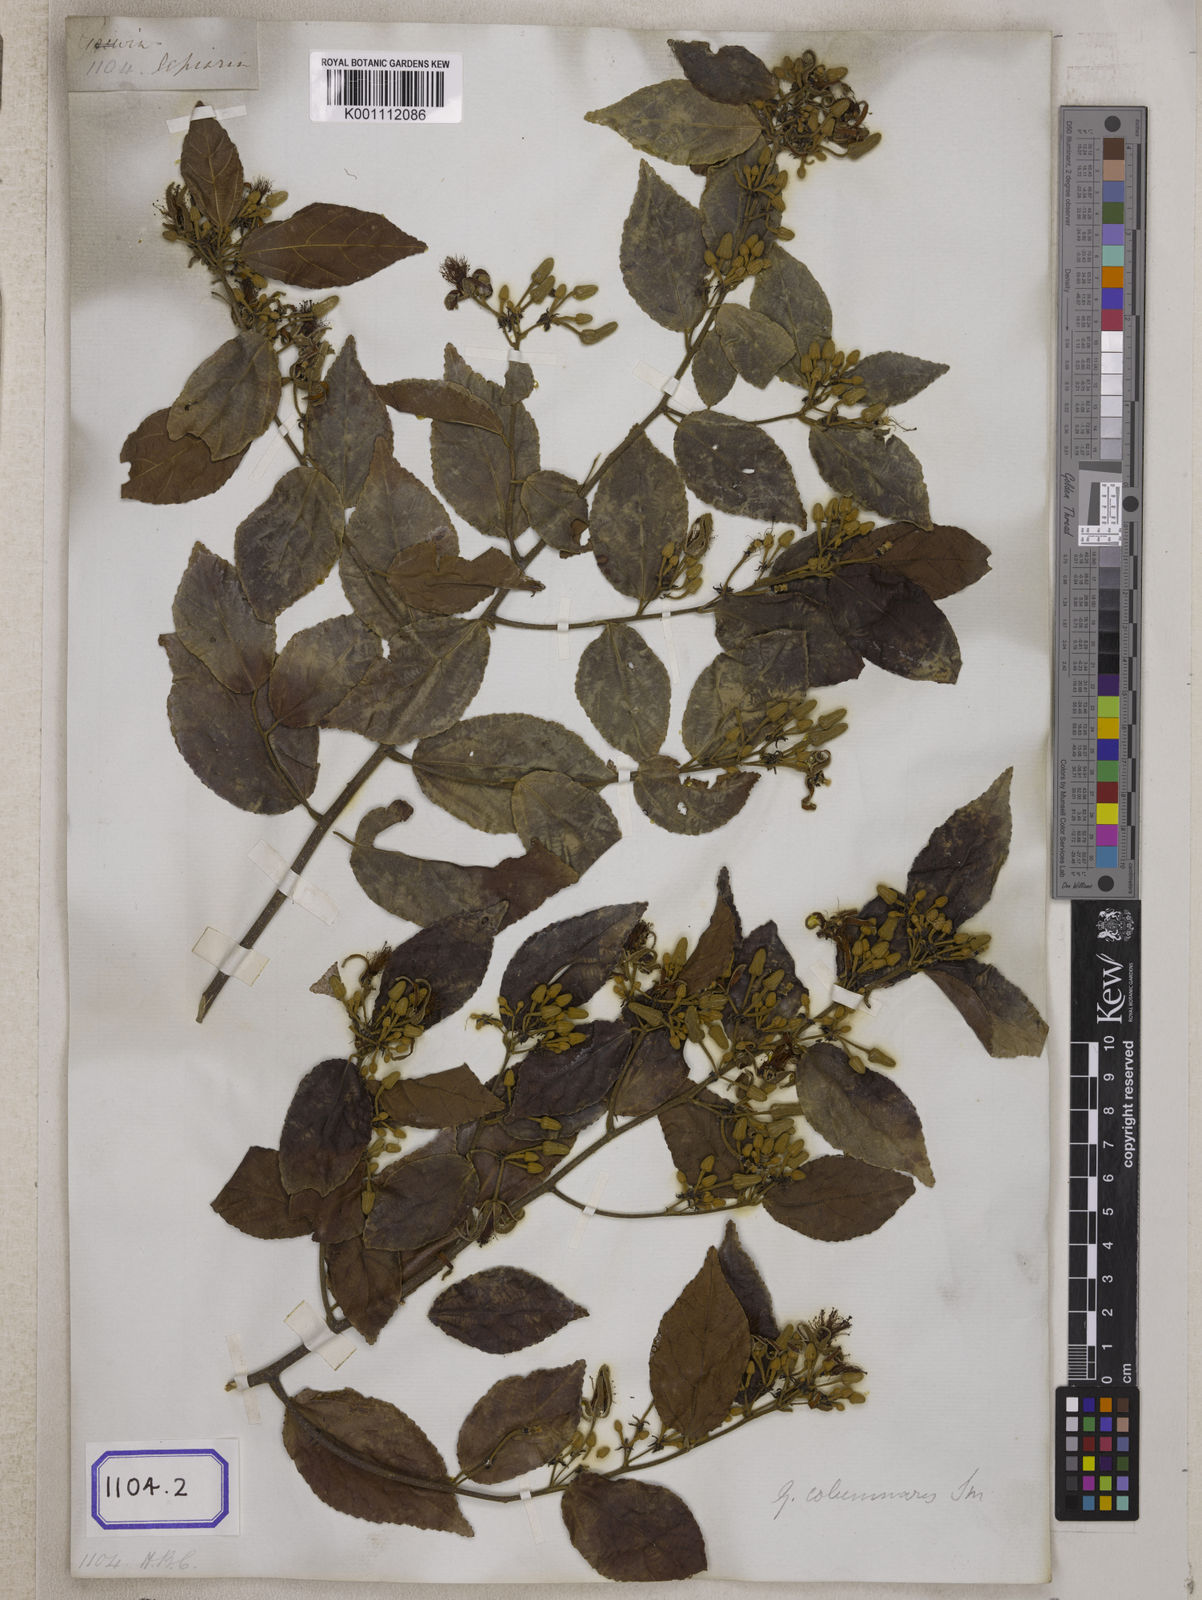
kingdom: Plantae
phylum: Tracheophyta
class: Magnoliopsida
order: Malvales
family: Malvaceae
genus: Grewia
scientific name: Grewia
